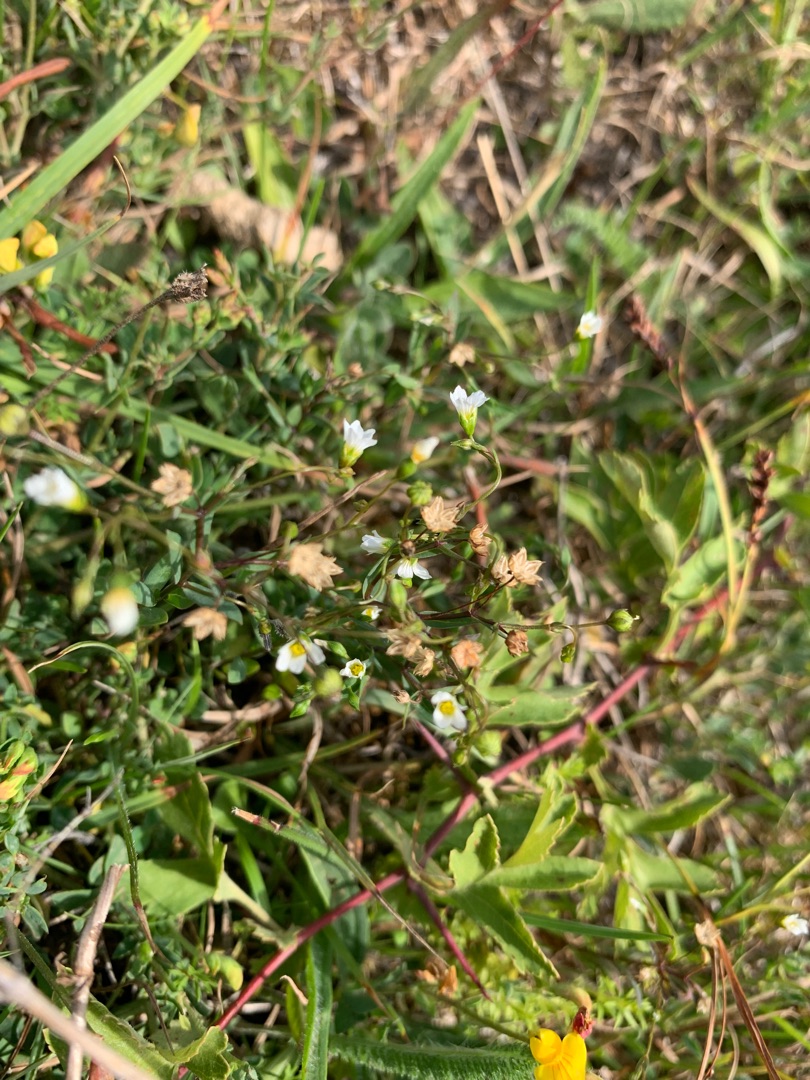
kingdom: Plantae
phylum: Tracheophyta
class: Magnoliopsida
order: Malpighiales
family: Linaceae
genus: Linum
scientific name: Linum catharticum
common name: Vild hør
